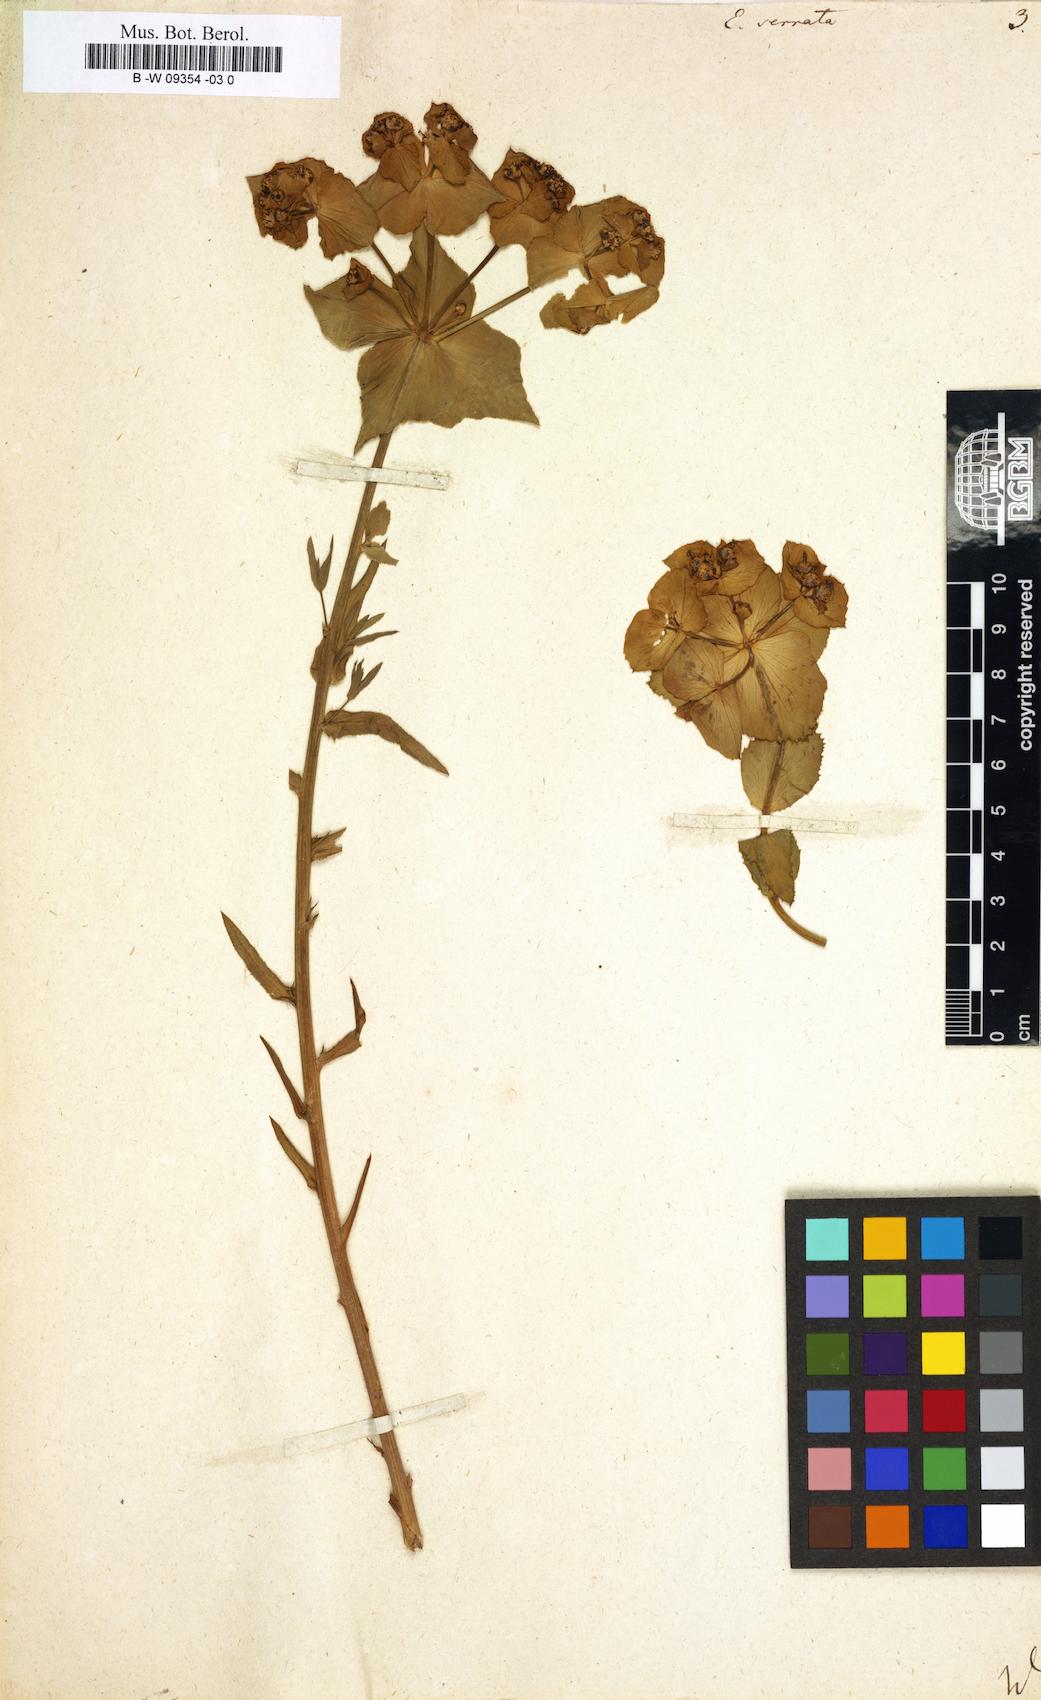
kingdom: Plantae
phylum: Tracheophyta
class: Magnoliopsida
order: Malpighiales
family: Euphorbiaceae
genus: Euphorbia
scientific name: Euphorbia serrata
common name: Serrate spurge
